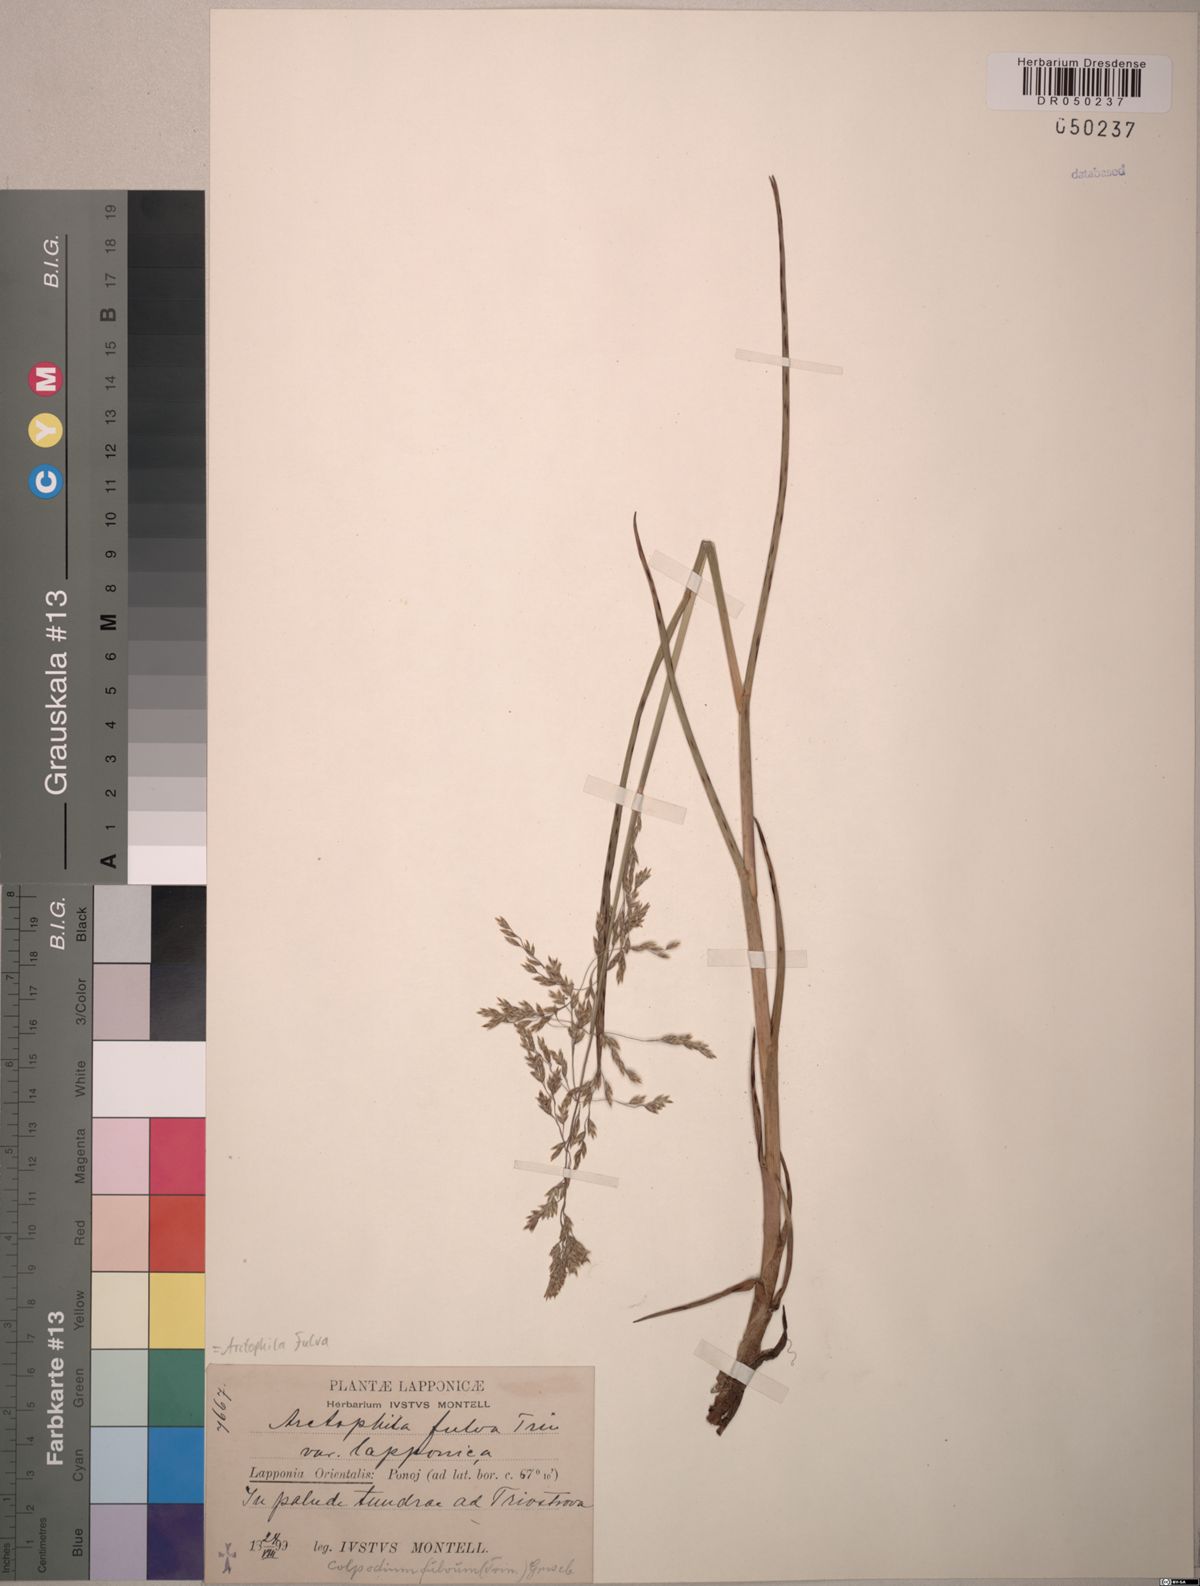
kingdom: Plantae
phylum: Tracheophyta
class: Liliopsida
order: Poales
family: Poaceae
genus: Dupontia
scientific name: Dupontia fulva
